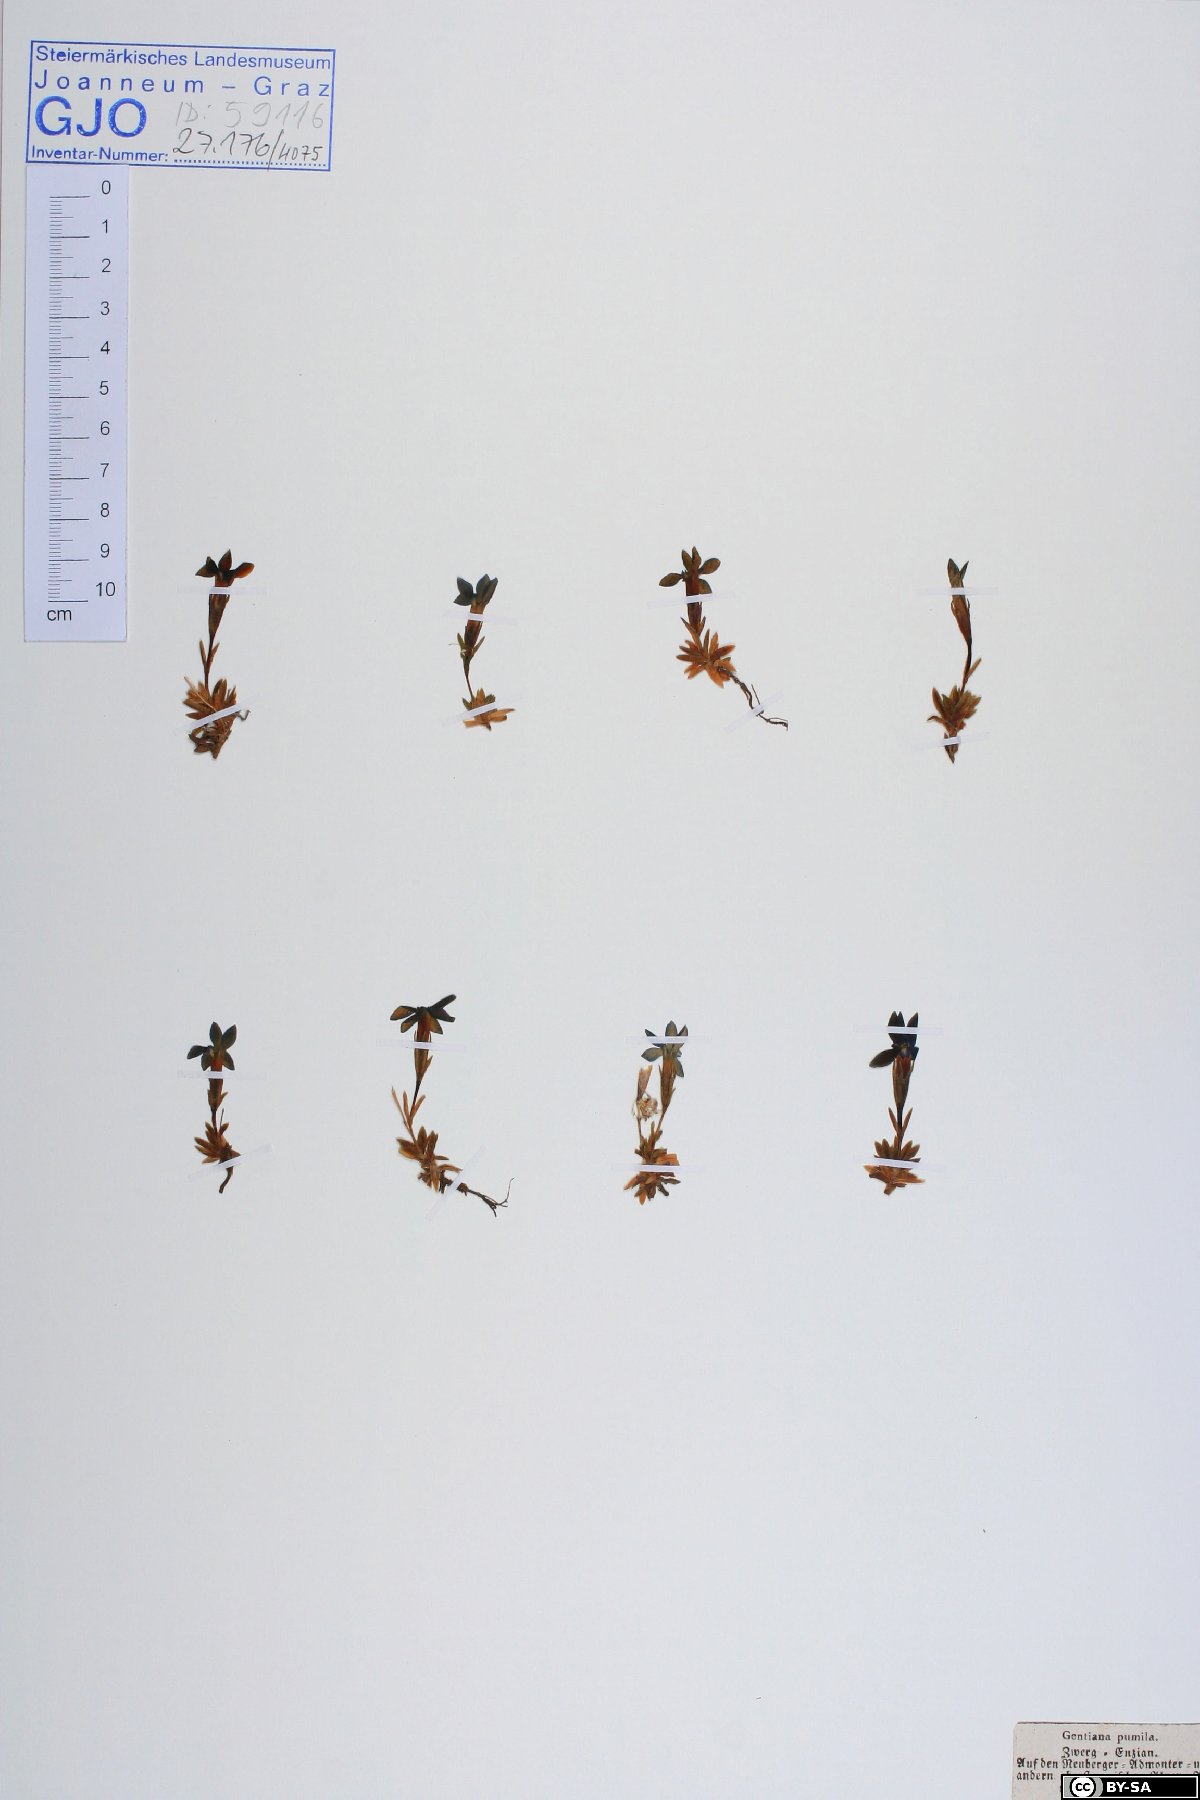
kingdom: Plantae
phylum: Tracheophyta
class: Magnoliopsida
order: Gentianales
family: Gentianaceae
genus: Gentiana
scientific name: Gentiana pumila
